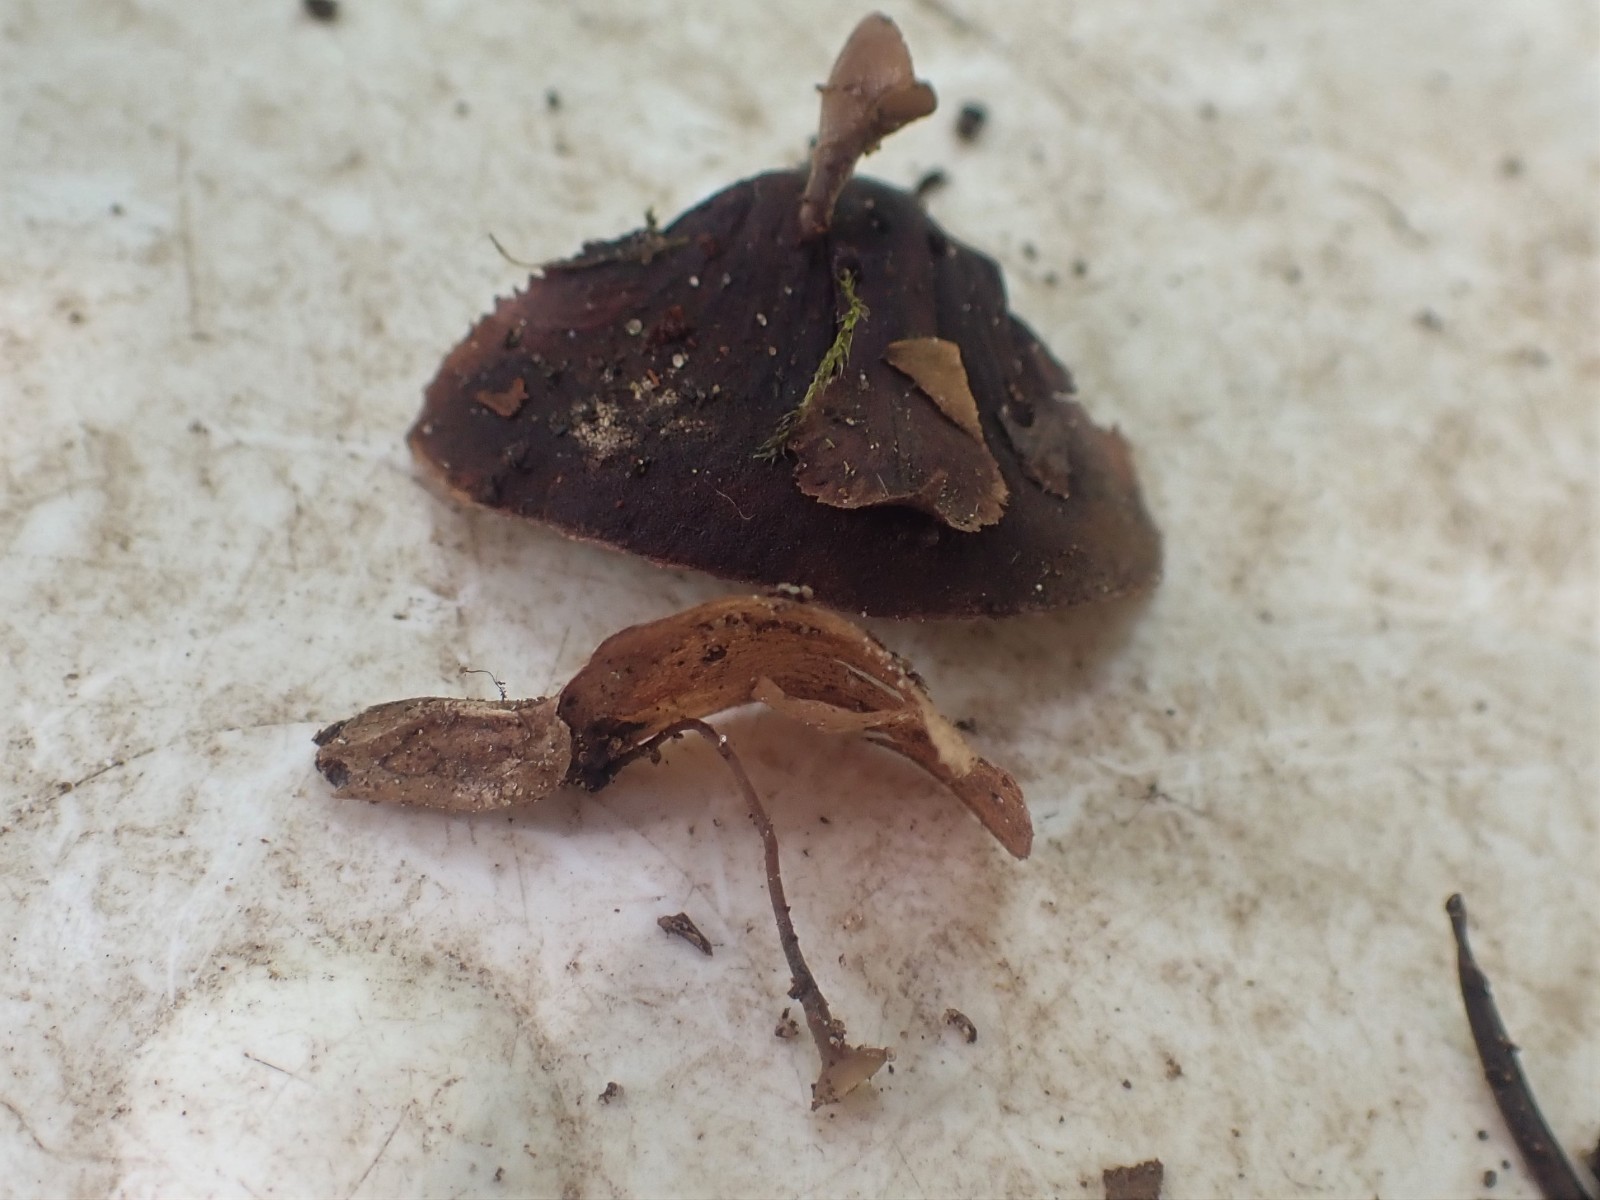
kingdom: Fungi
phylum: Ascomycota
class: Leotiomycetes
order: Helotiales
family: Sclerotiniaceae
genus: Ciboria
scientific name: Ciboria rufofusca
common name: kogleskæl-knoldskive
